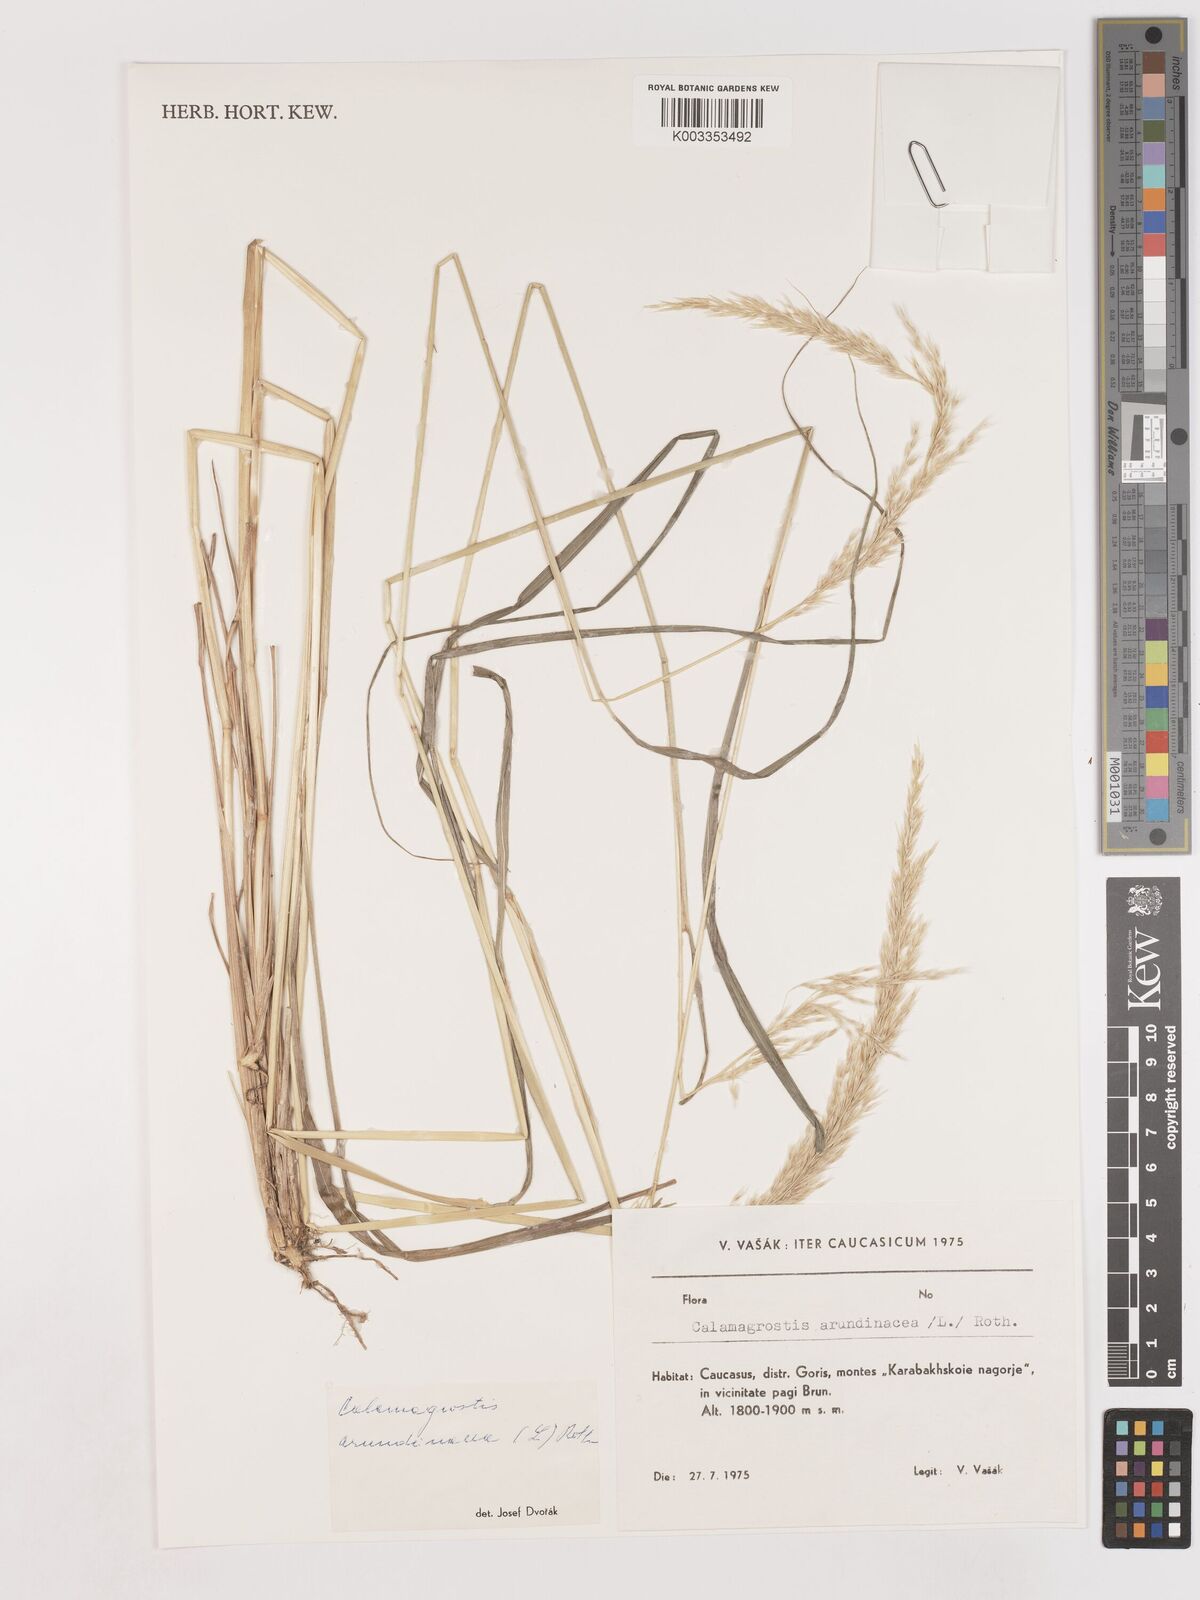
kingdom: Plantae
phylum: Tracheophyta
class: Liliopsida
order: Poales
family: Poaceae
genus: Calamagrostis
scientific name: Calamagrostis
